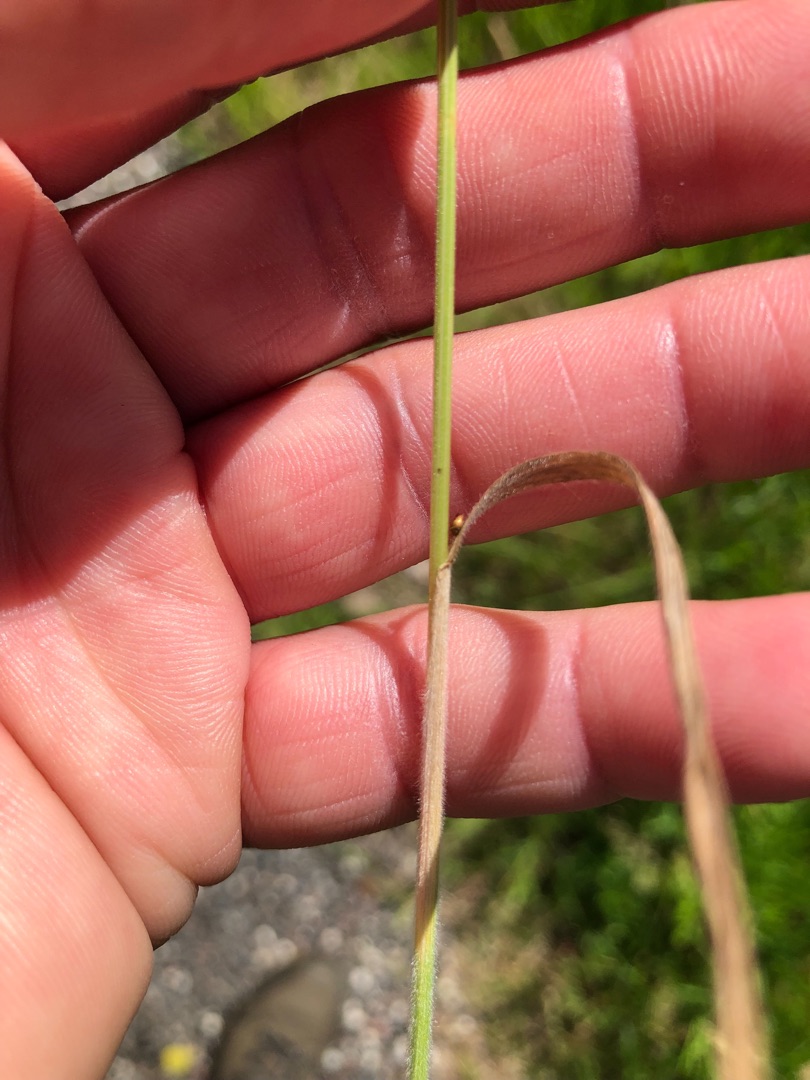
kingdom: Plantae
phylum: Tracheophyta
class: Liliopsida
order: Poales
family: Poaceae
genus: Bromus
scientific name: Bromus hordeaceus
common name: Blød hejre
